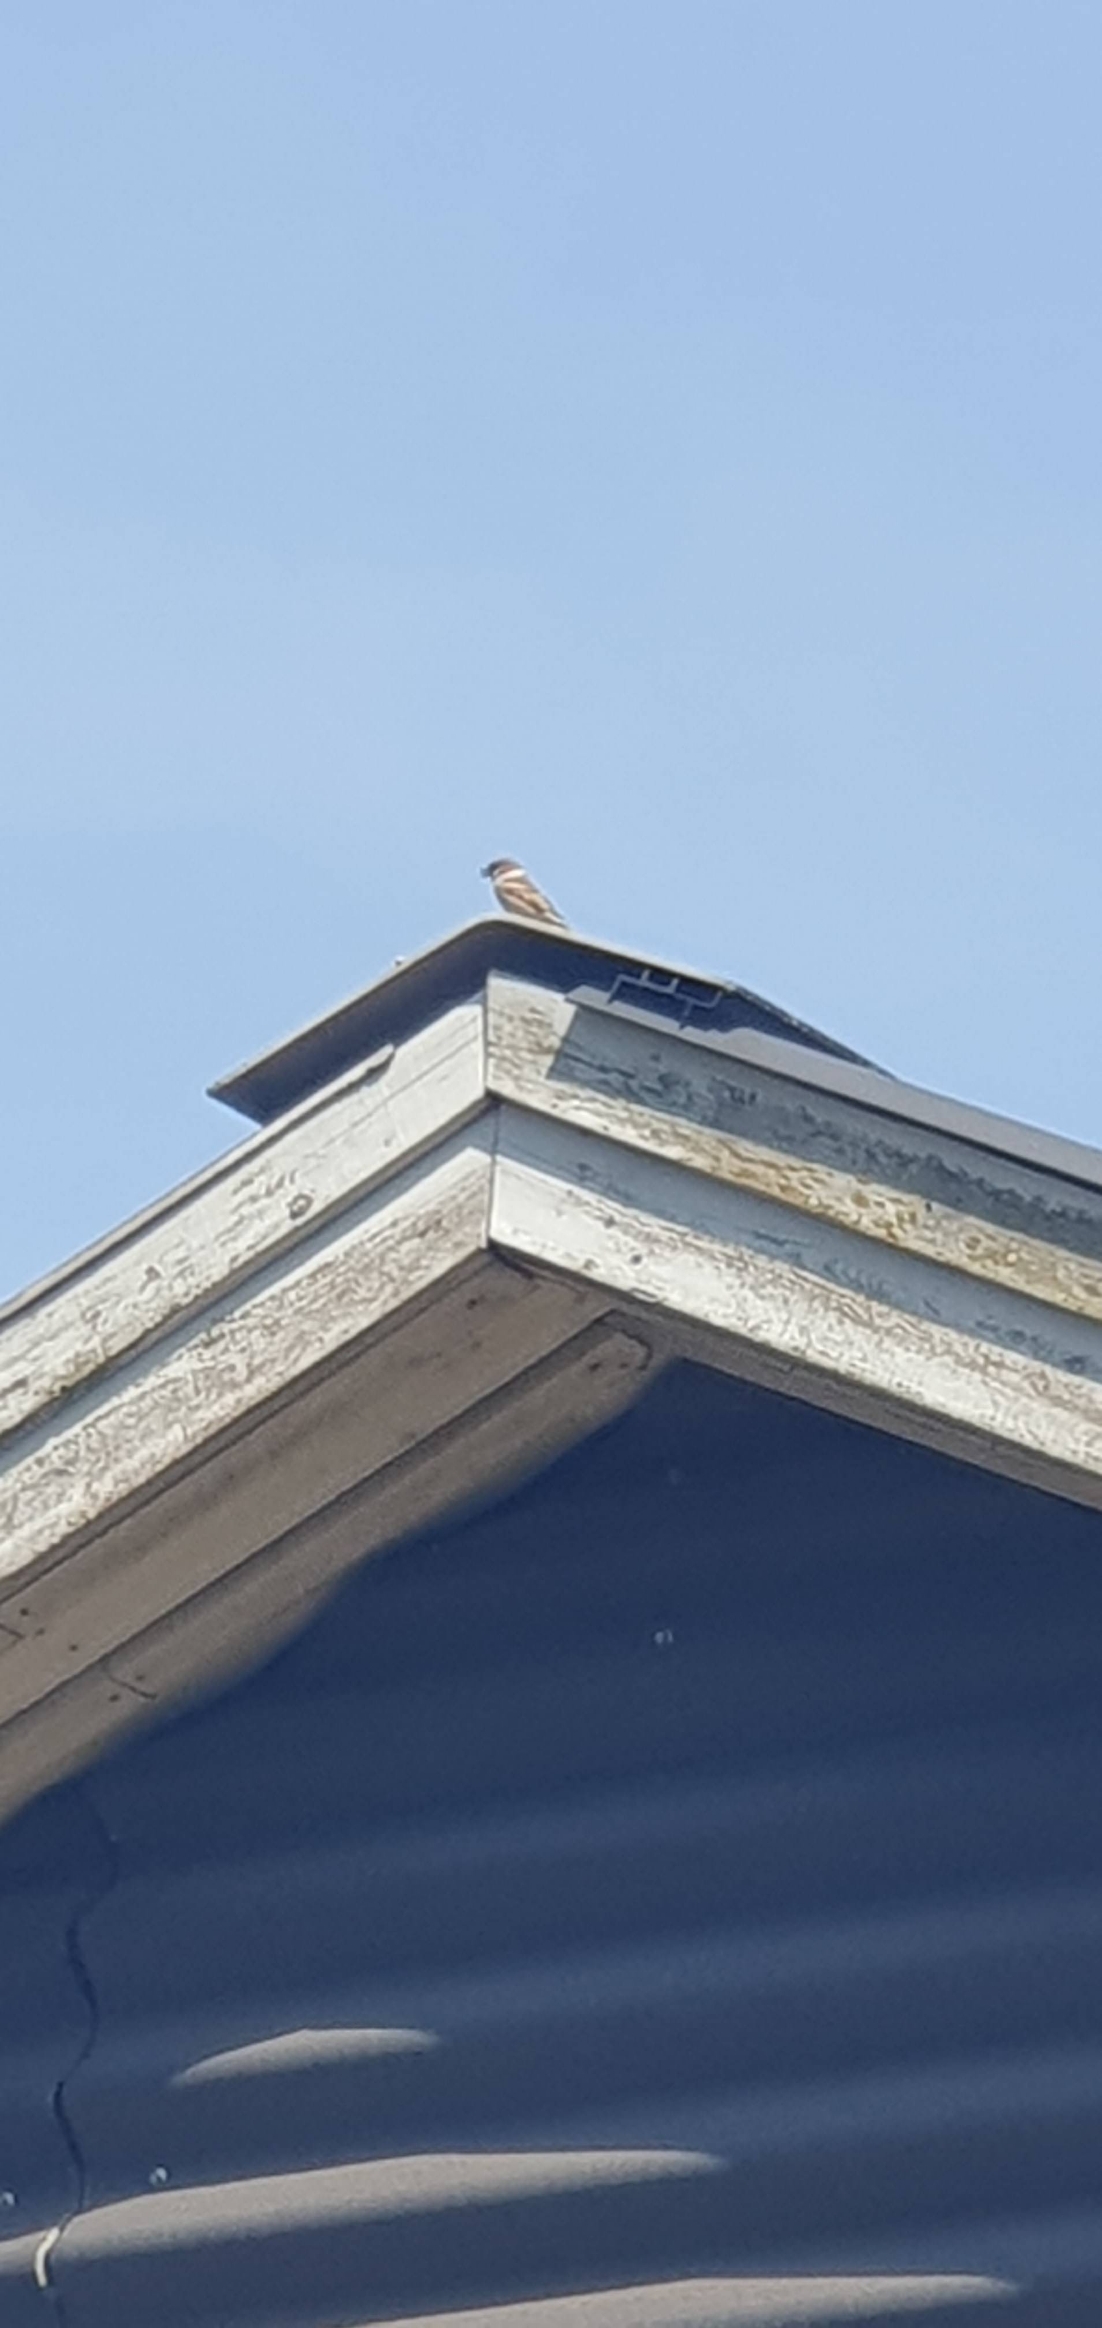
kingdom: Animalia
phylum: Chordata
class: Aves
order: Passeriformes
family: Passeridae
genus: Passer
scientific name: Passer montanus
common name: Skovspurv
